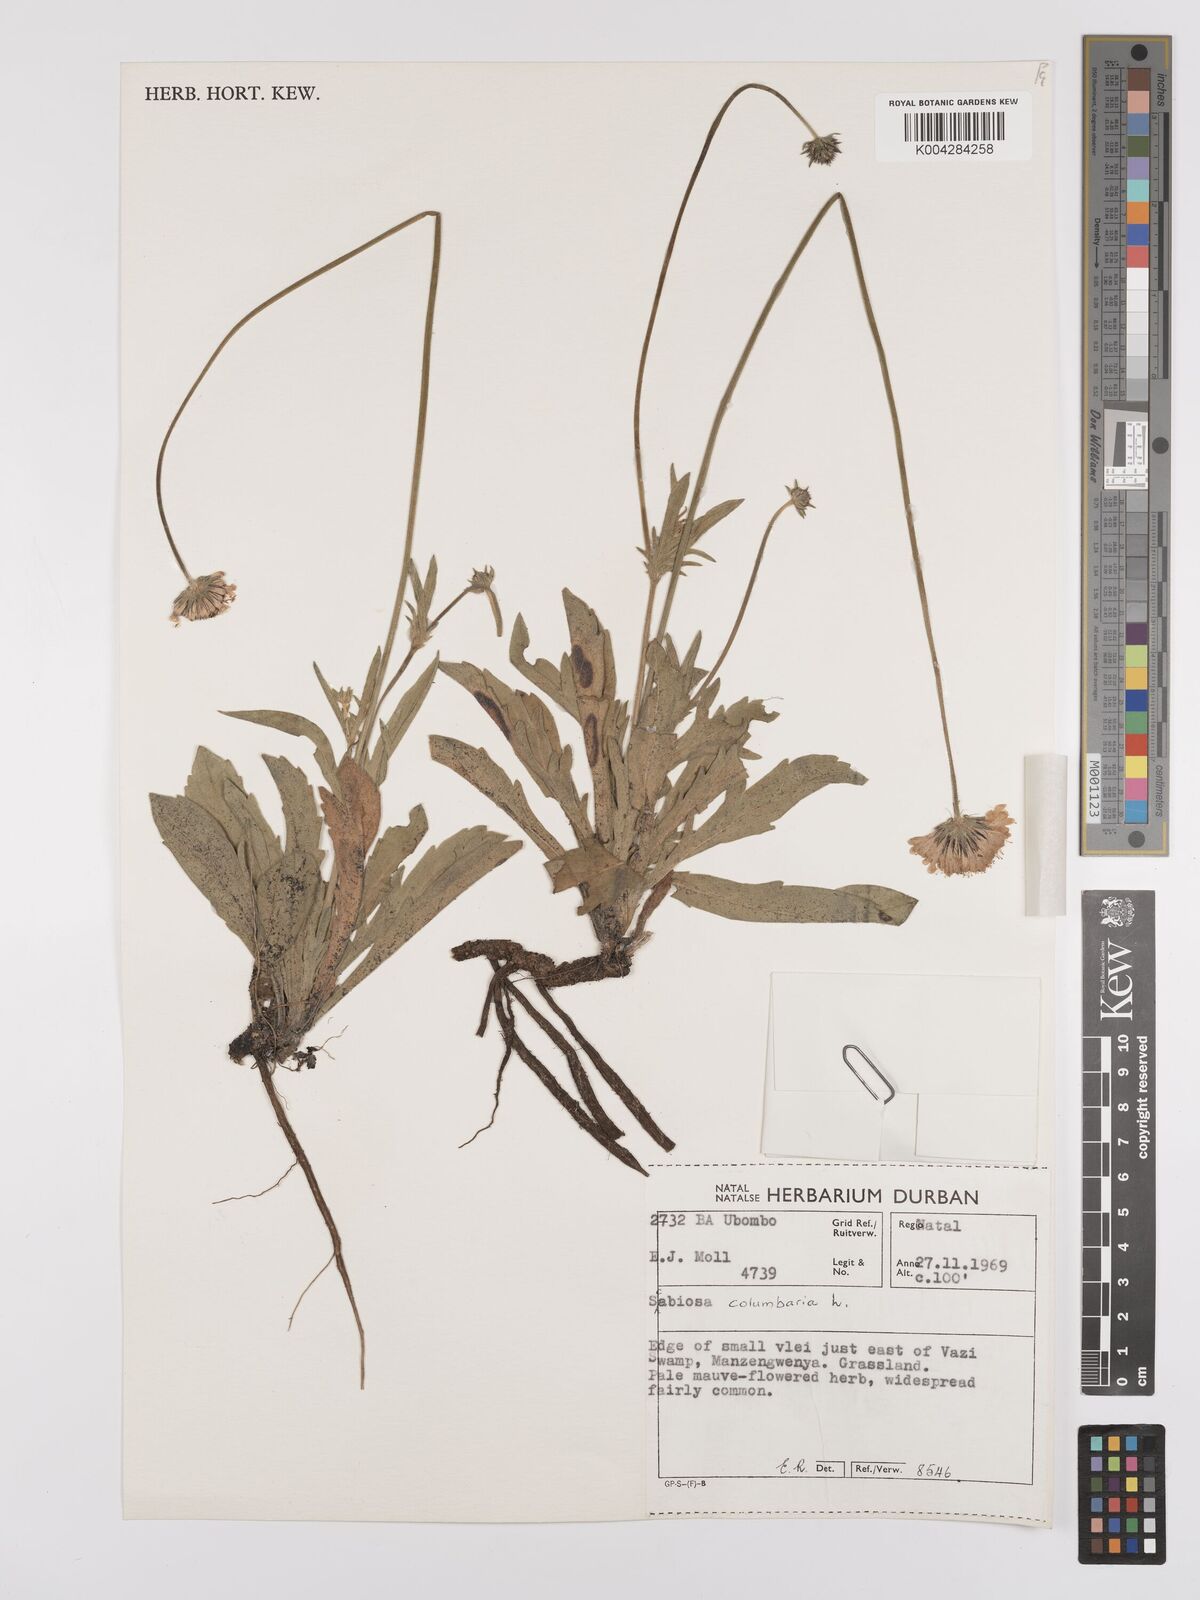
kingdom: Plantae
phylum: Tracheophyta
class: Magnoliopsida
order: Dipsacales
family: Caprifoliaceae
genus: Scabiosa
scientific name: Scabiosa columbaria
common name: Small scabious
